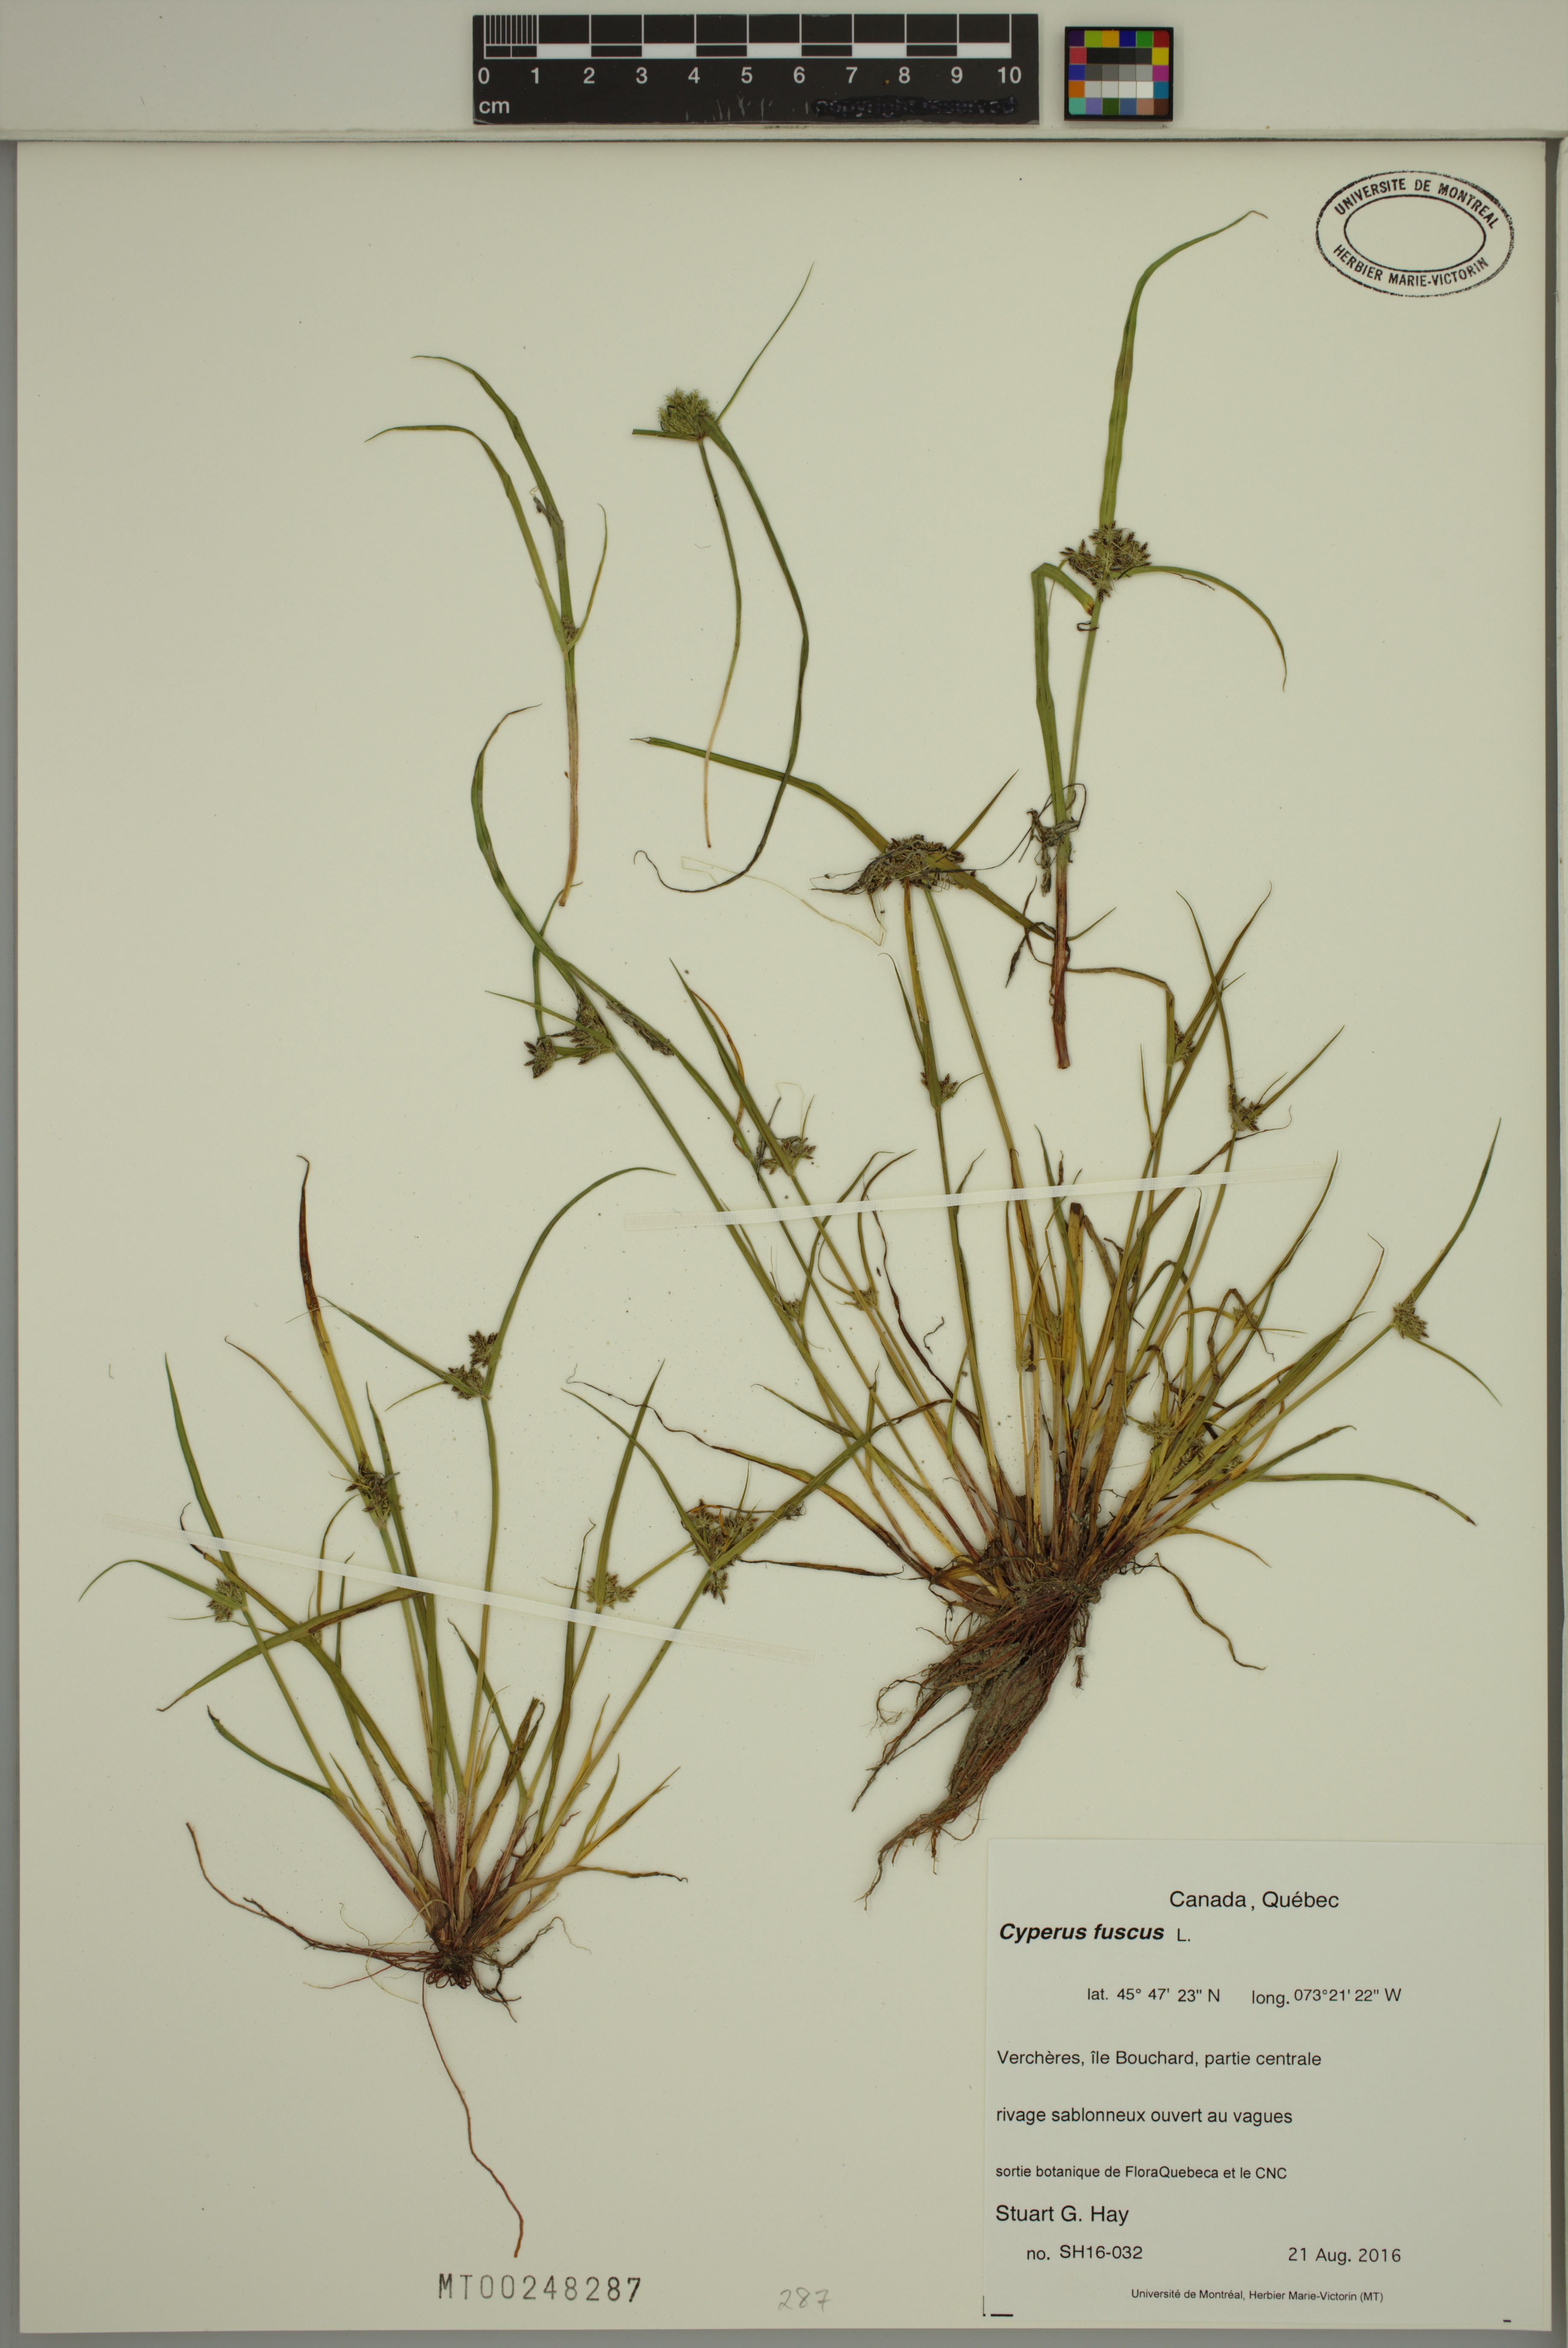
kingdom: Plantae
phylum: Tracheophyta
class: Liliopsida
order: Poales
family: Cyperaceae
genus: Cyperus
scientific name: Cyperus fuscus
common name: Brown galingale
